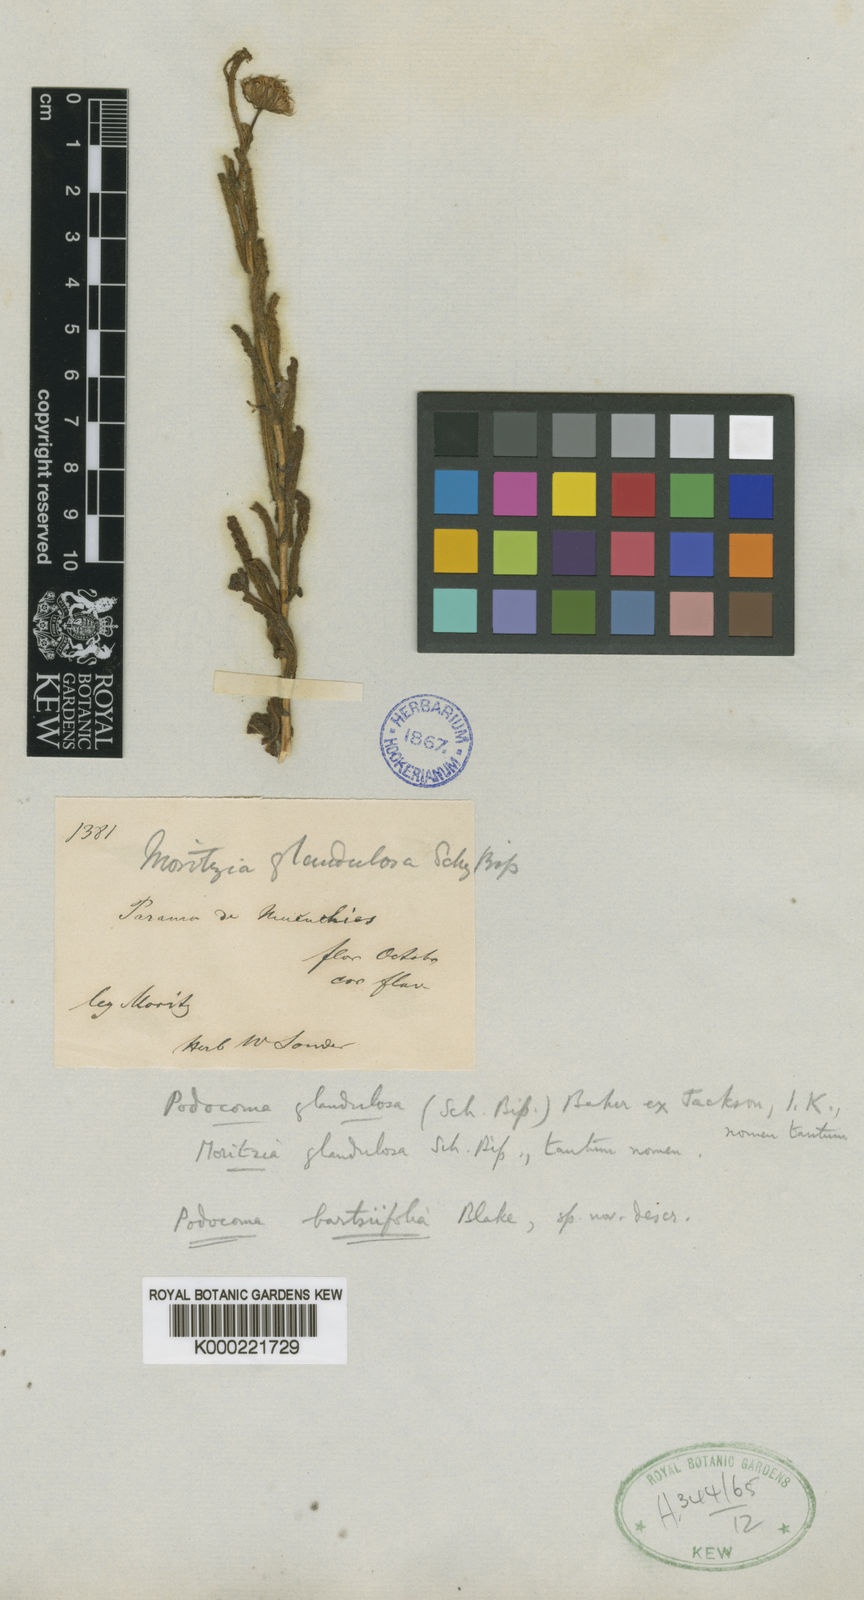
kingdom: Plantae
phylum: Tracheophyta
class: Magnoliopsida
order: Asterales
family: Asteraceae
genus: Blakiella
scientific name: Blakiella bartsiifolia
